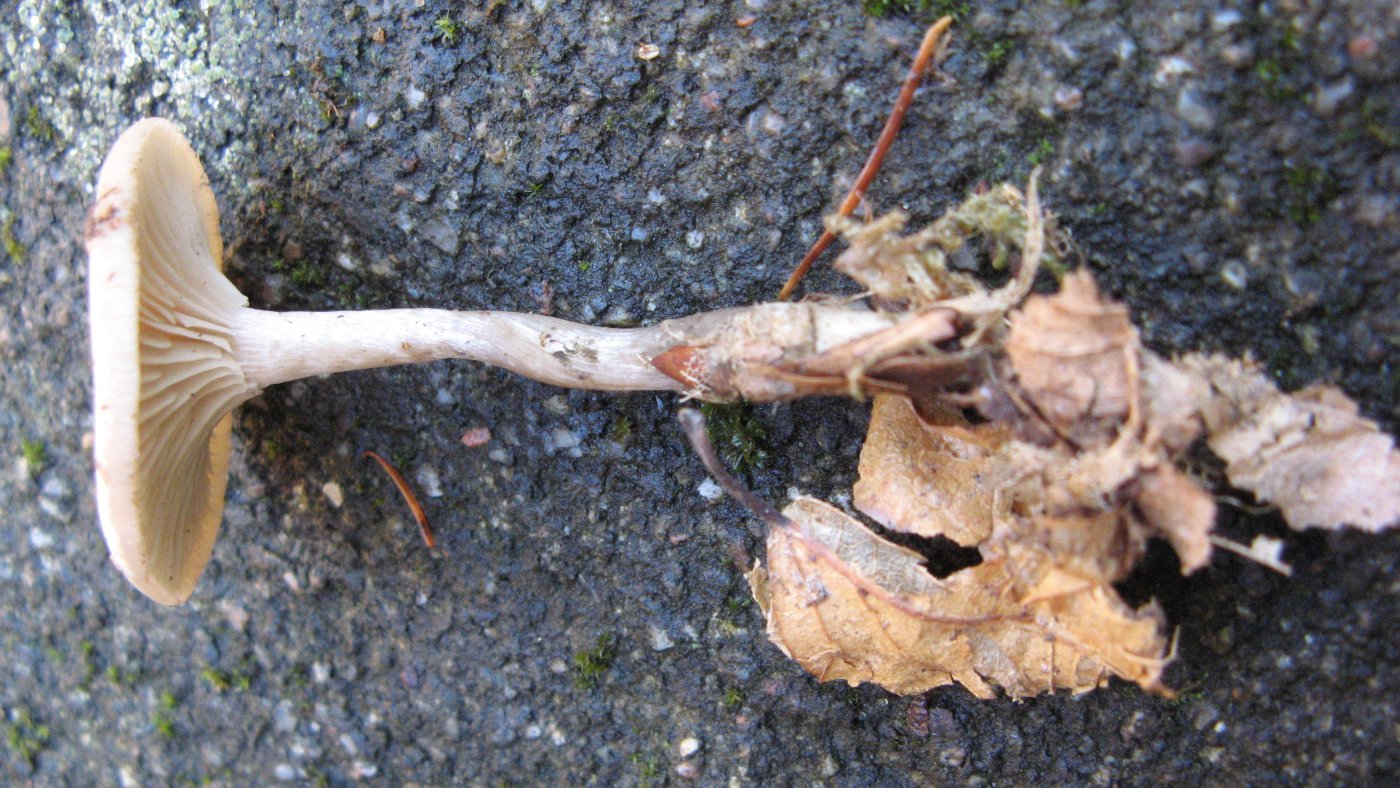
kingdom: Fungi
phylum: Basidiomycota
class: Agaricomycetes
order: Agaricales
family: Tricholomataceae
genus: Clitocybe
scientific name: Clitocybe metachroa
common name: grå tragthat
